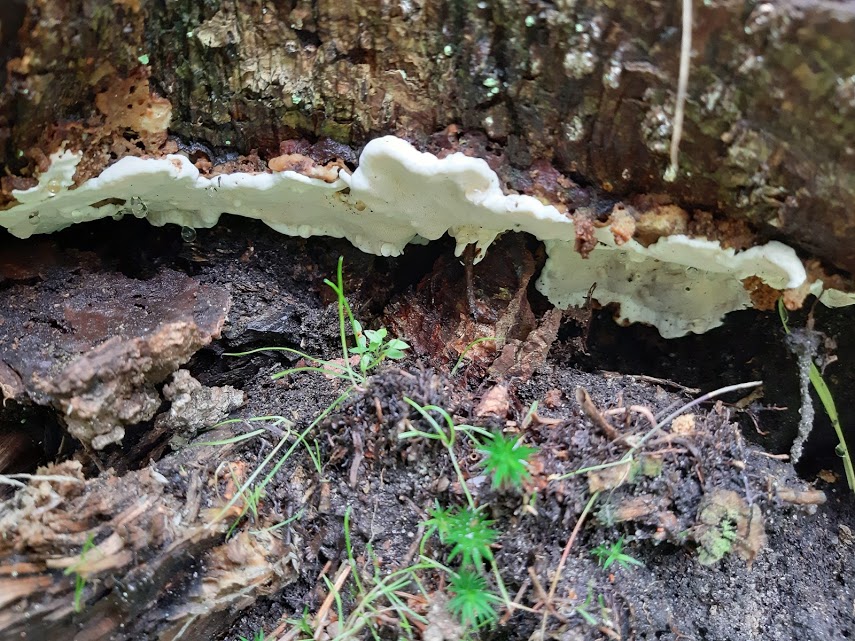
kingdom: Fungi
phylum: Basidiomycota
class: Agaricomycetes
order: Russulales
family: Bondarzewiaceae
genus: Heterobasidion
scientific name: Heterobasidion annosum
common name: almindelig rodfordærver
